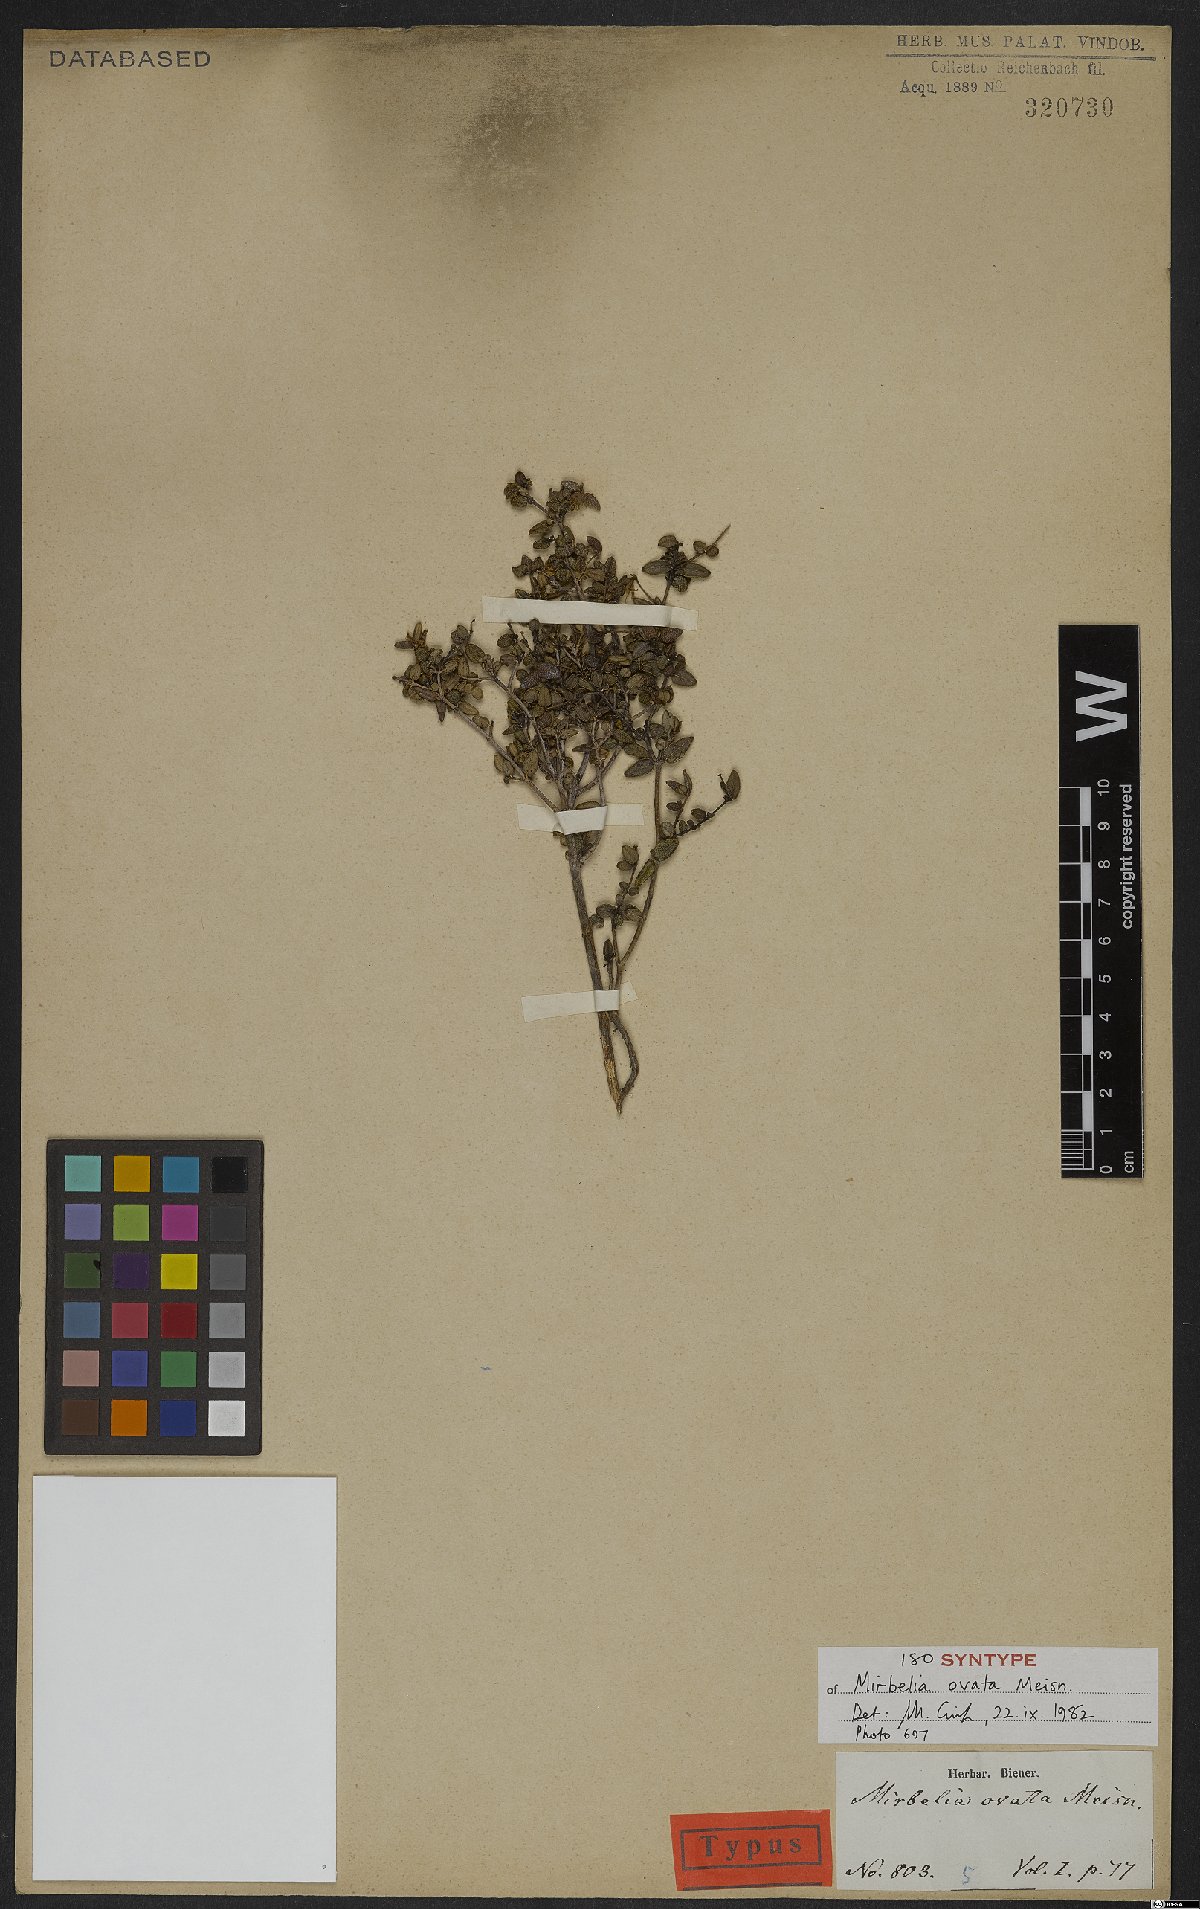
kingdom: Plantae
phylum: Tracheophyta
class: Magnoliopsida
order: Fabales
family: Fabaceae
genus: Mirbelia
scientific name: Mirbelia ovata
